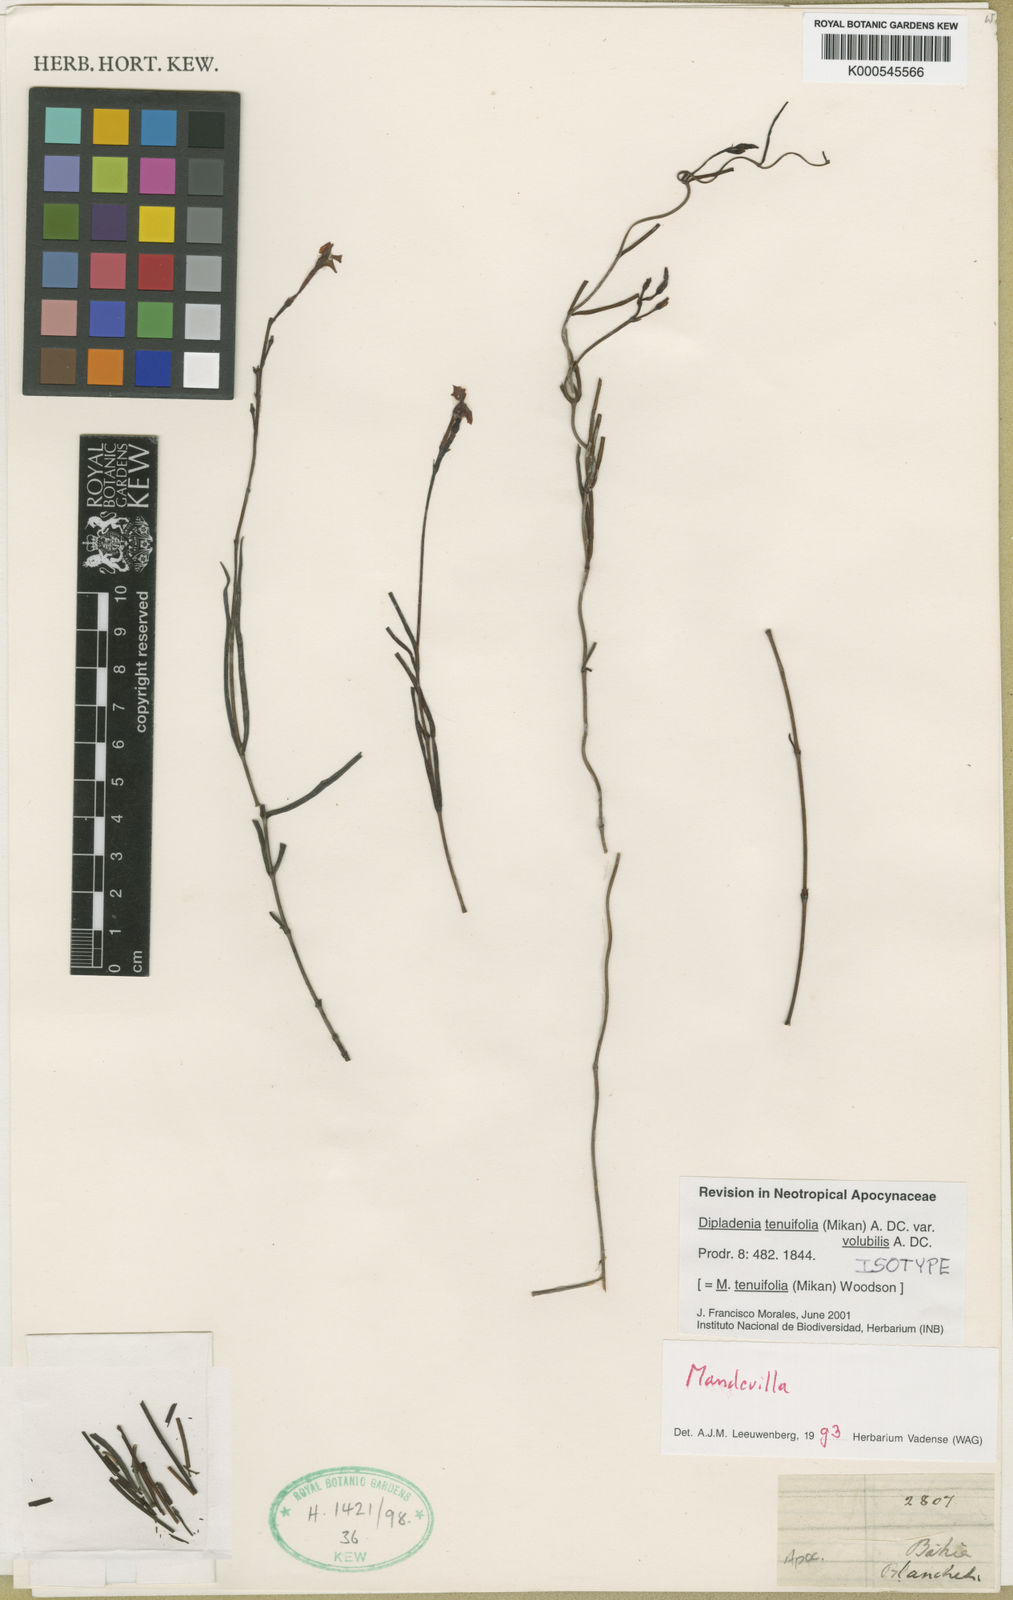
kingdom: Plantae
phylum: Tracheophyta
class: Magnoliopsida
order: Gentianales
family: Apocynaceae
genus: Mandevilla
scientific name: Mandevilla tenuifolia
